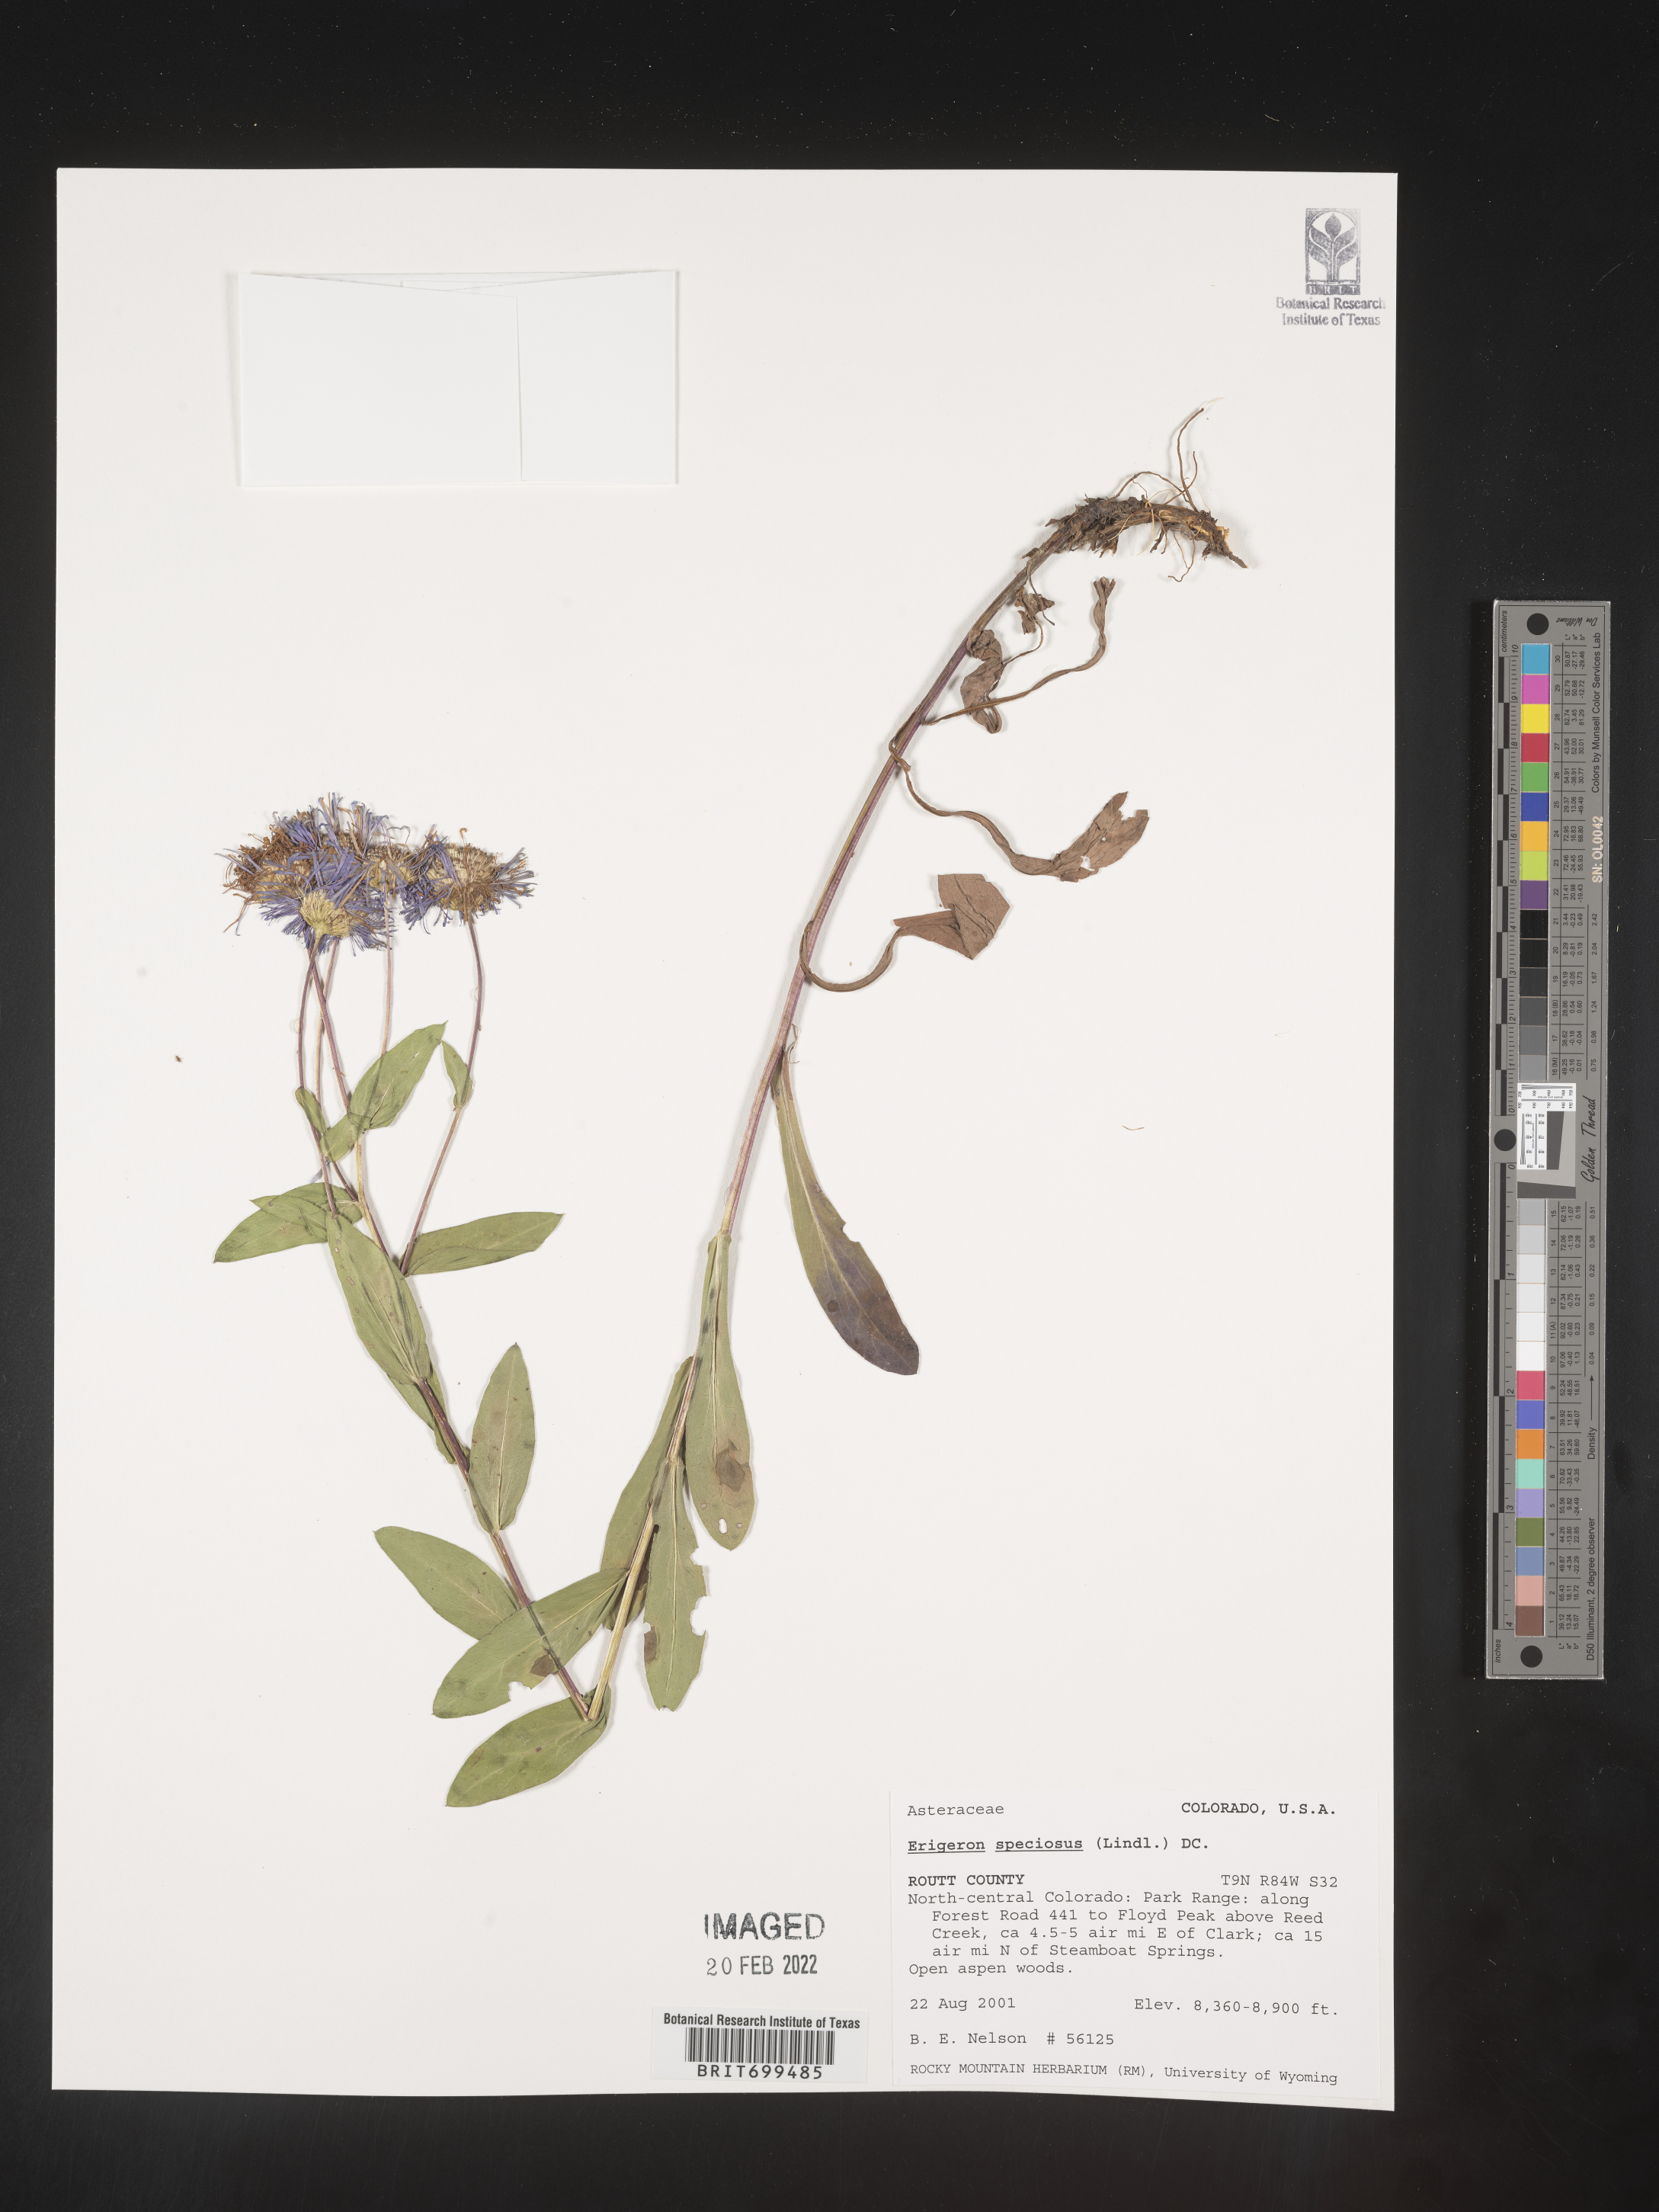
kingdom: Plantae
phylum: Tracheophyta
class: Magnoliopsida
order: Asterales
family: Asteraceae
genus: Erigeron
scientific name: Erigeron speciosus
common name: Aspen fleabane
